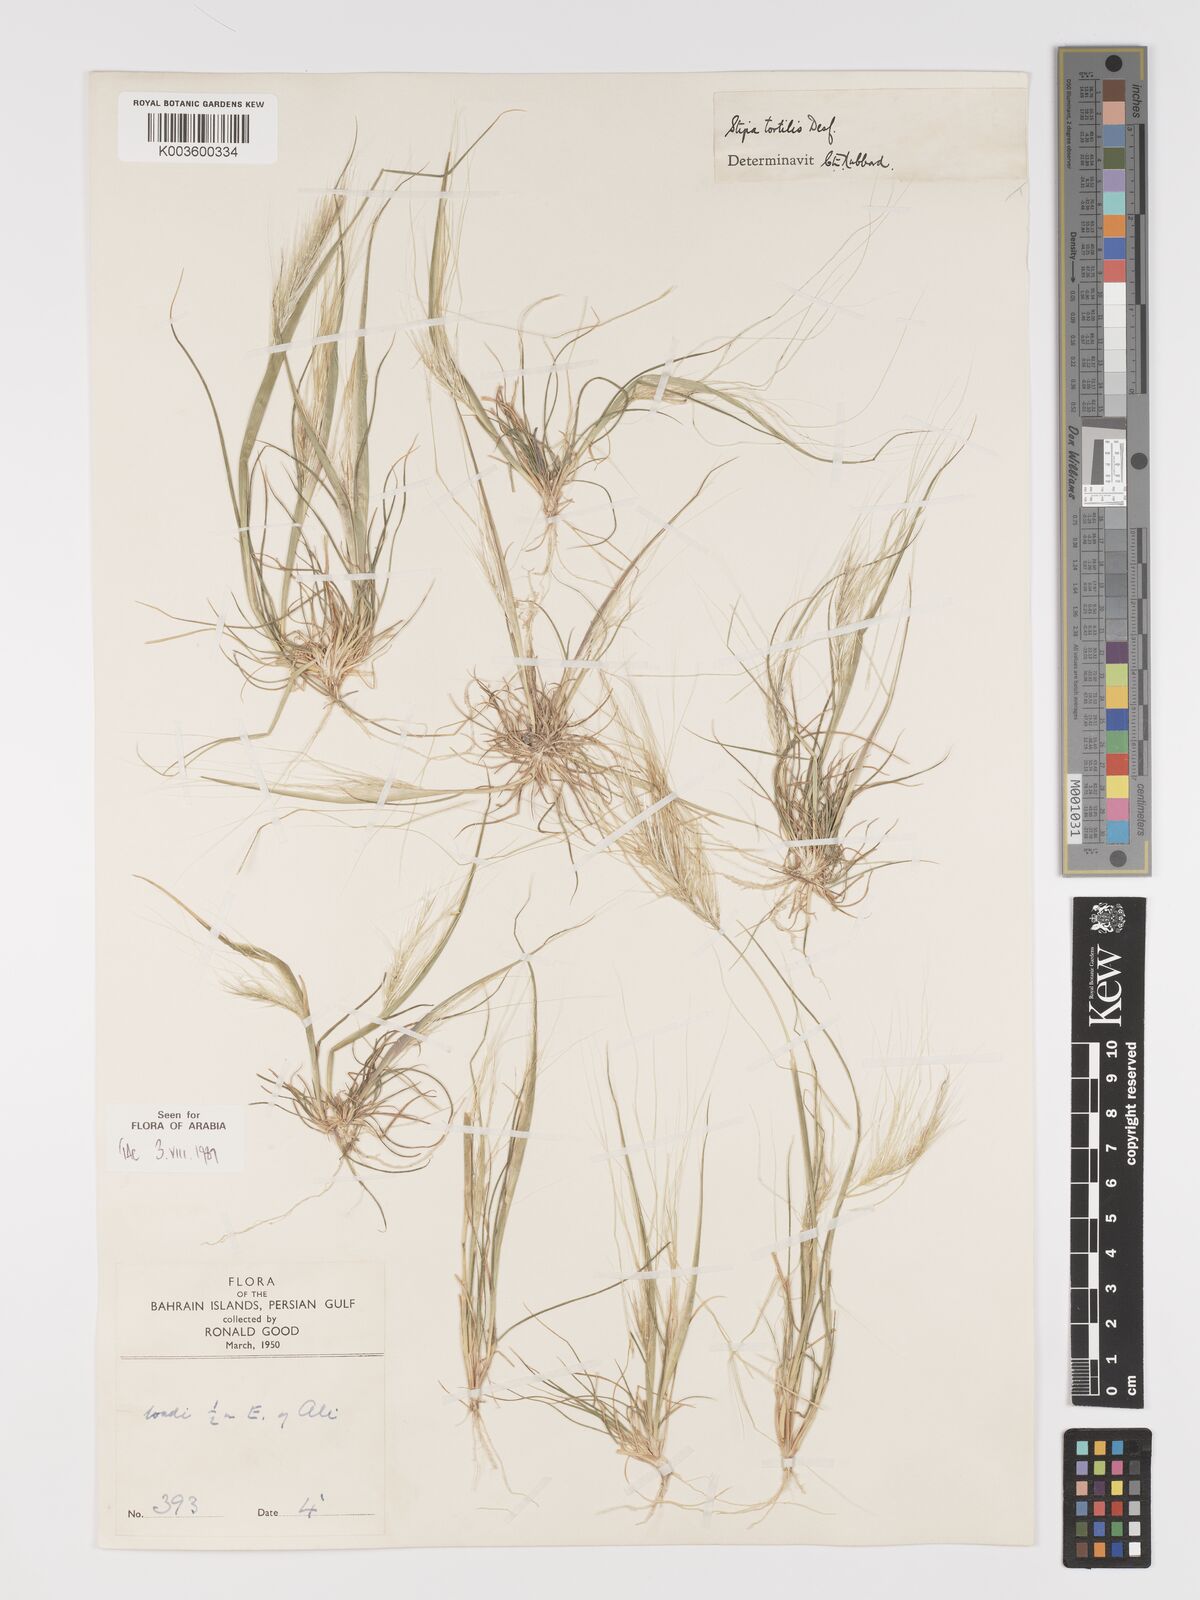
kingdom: Plantae
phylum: Tracheophyta
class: Liliopsida
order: Poales
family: Poaceae
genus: Stipellula
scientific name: Stipellula capensis
